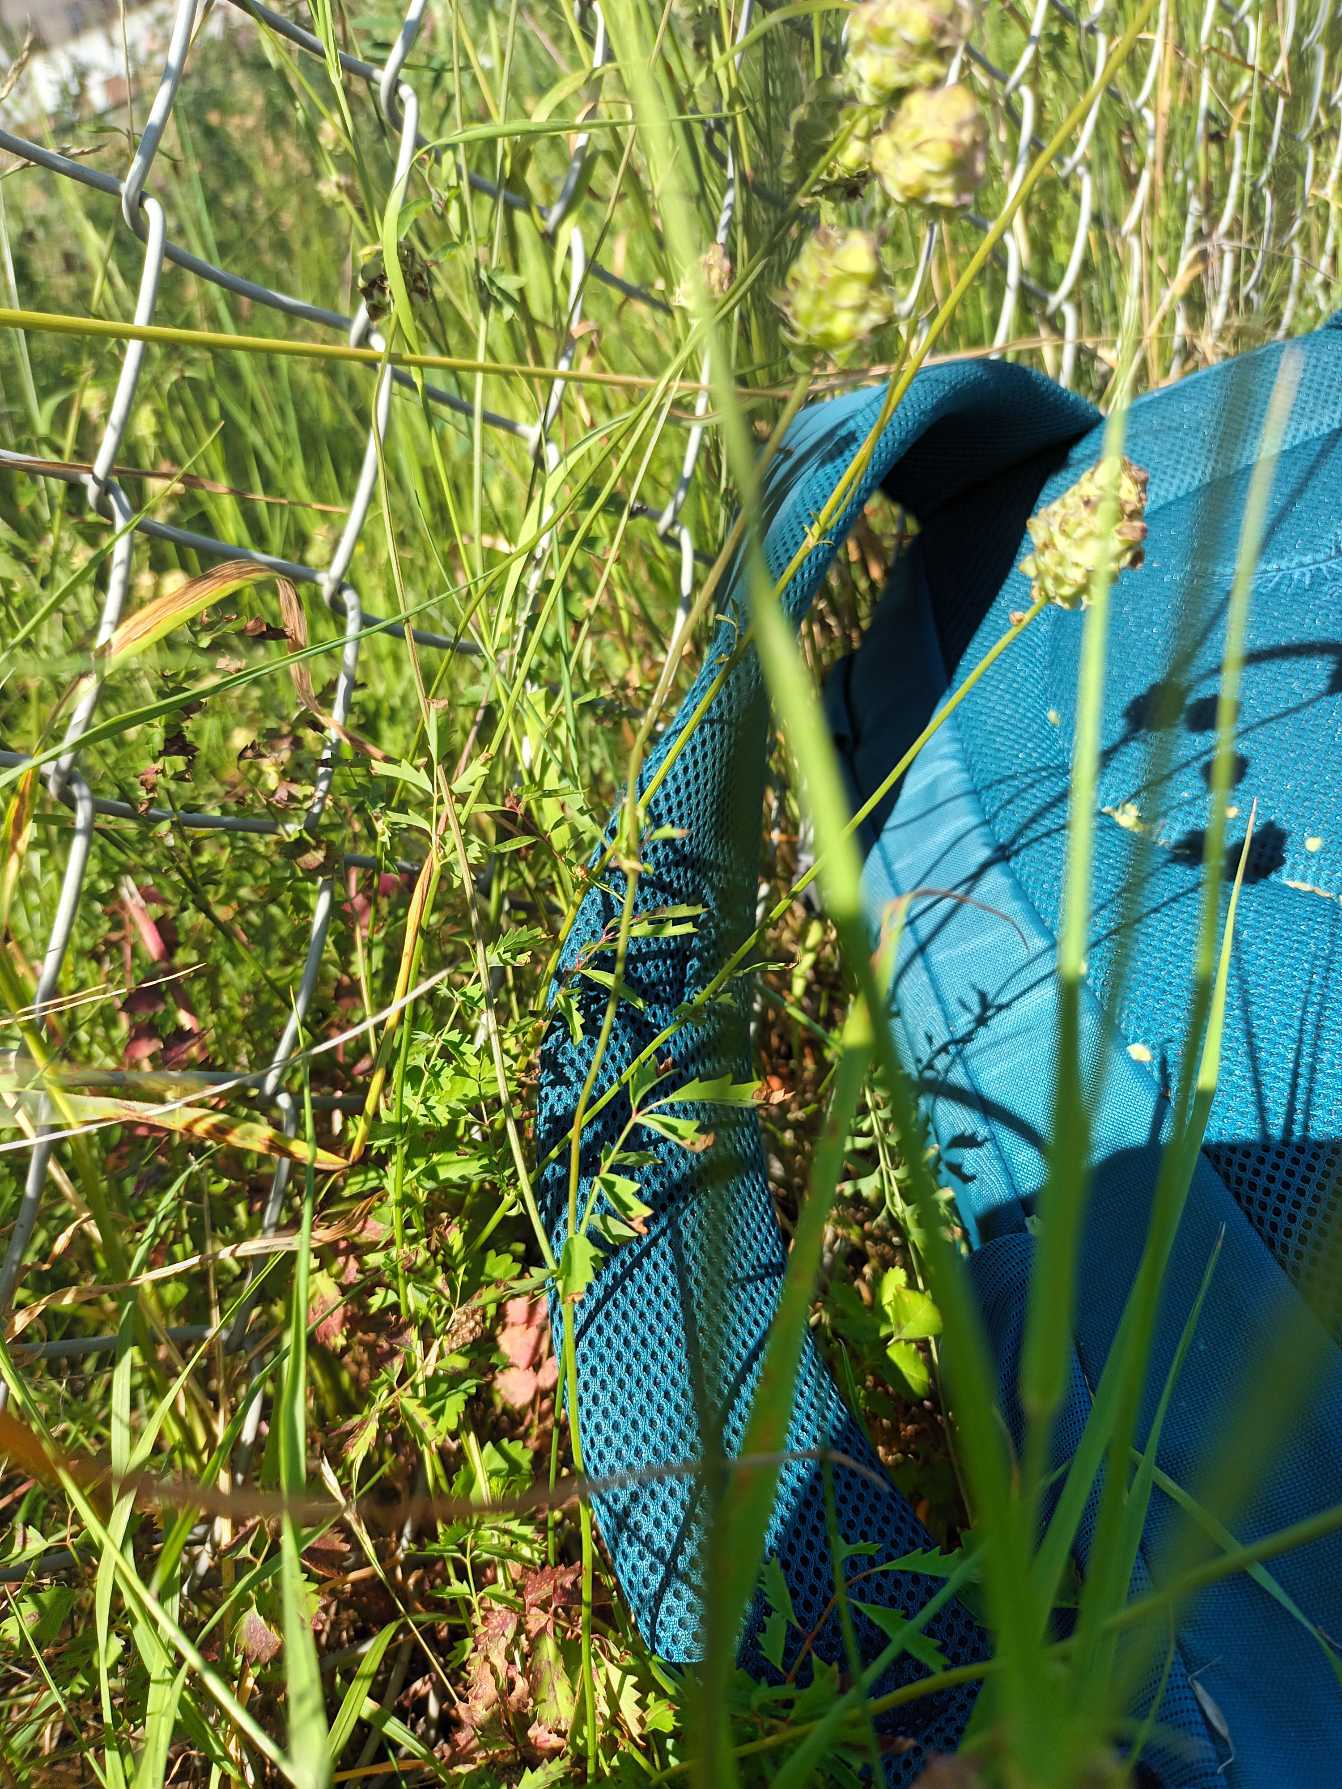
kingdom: Plantae
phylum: Tracheophyta
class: Magnoliopsida
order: Rosales
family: Rosaceae
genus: Poterium
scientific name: Poterium sanguisorba
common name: Vingefrøet bibernelle
